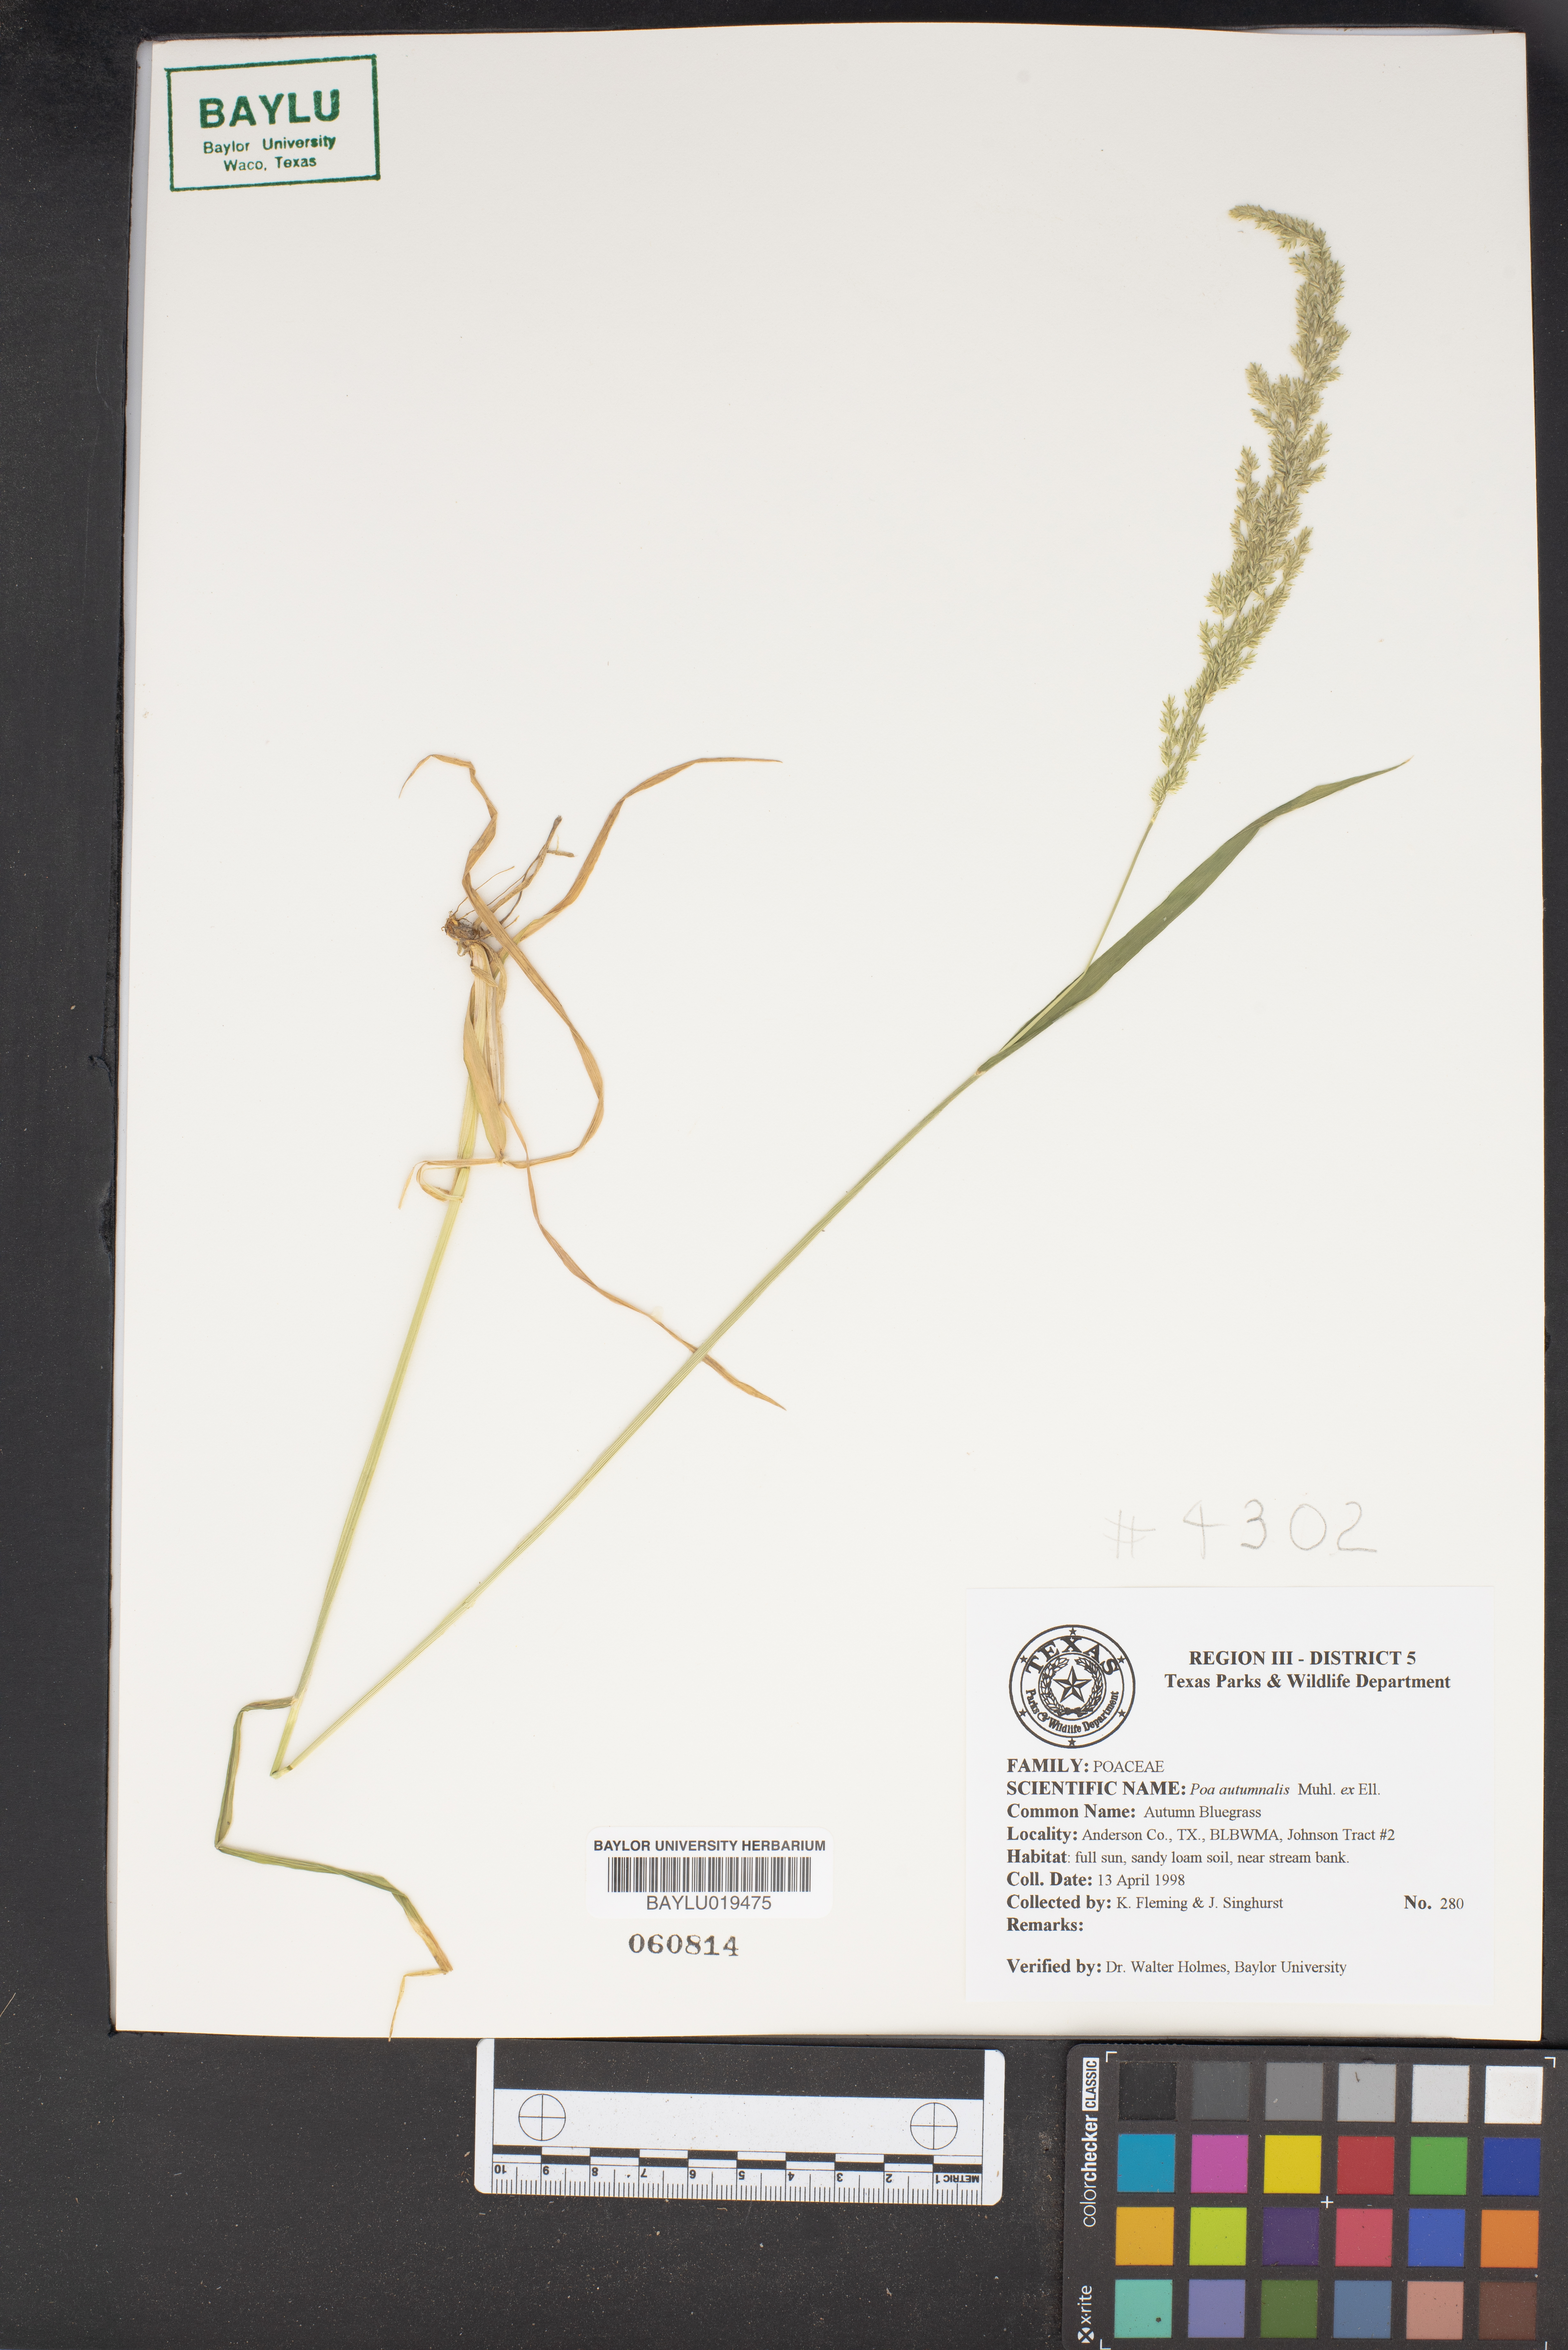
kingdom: Plantae
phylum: Tracheophyta
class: Liliopsida
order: Poales
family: Poaceae
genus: Poa
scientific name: Poa autumnalis
